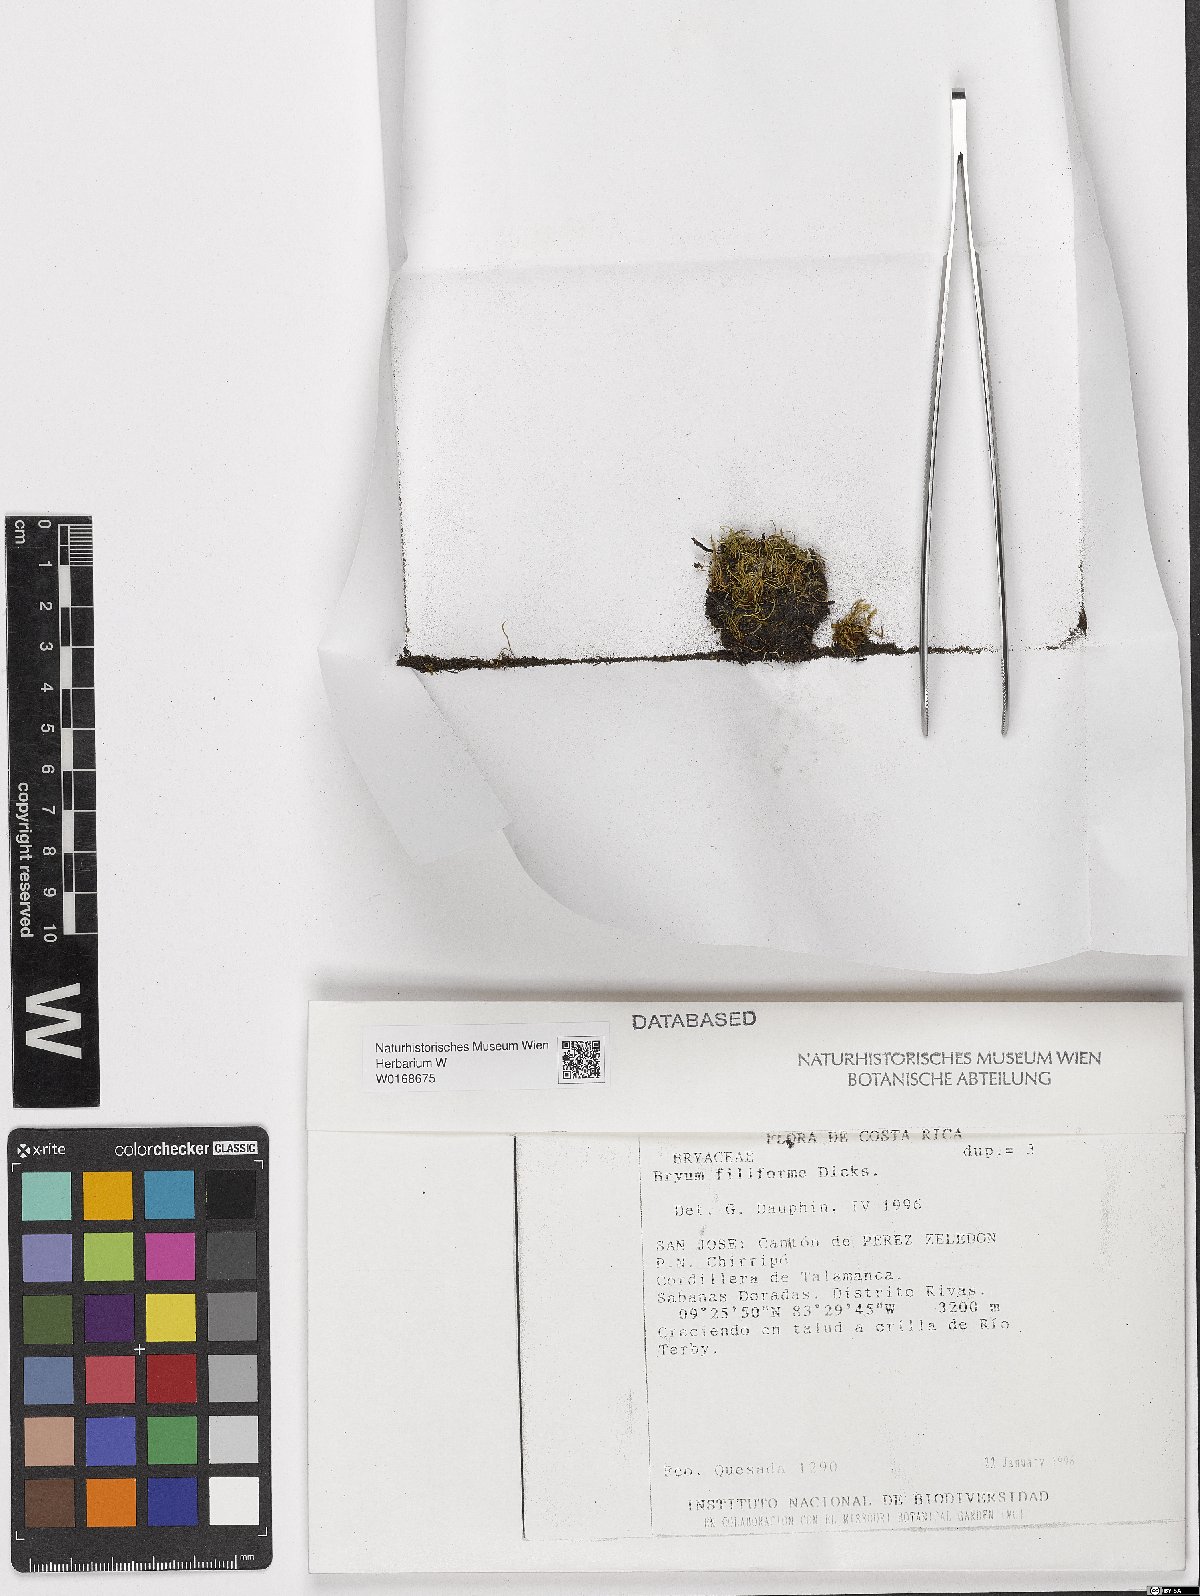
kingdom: Plantae
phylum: Bryophyta
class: Bryopsida
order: Bryales
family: Bryaceae
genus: Anomobryum
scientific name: Anomobryum julaceum
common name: Slender silver moss
